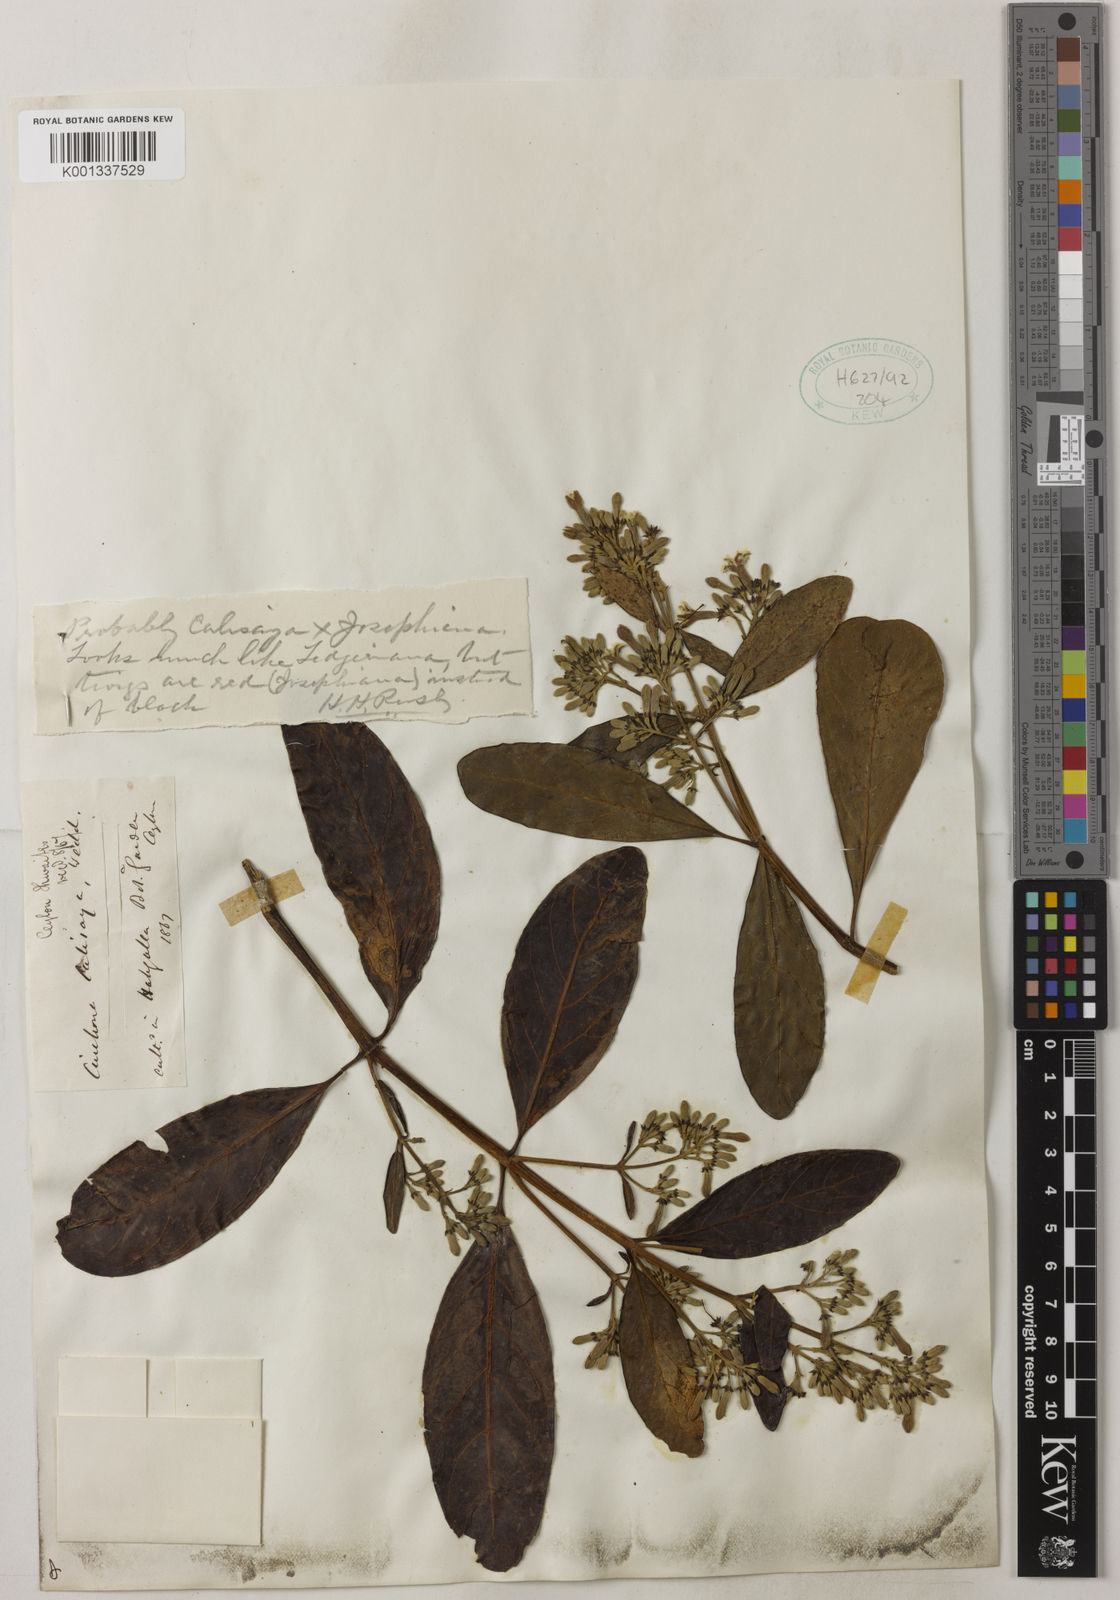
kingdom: Plantae
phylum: Tracheophyta
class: Magnoliopsida
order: Gentianales
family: Rubiaceae
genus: Cinchona
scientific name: Cinchona calisaya
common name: Ledgerbark
